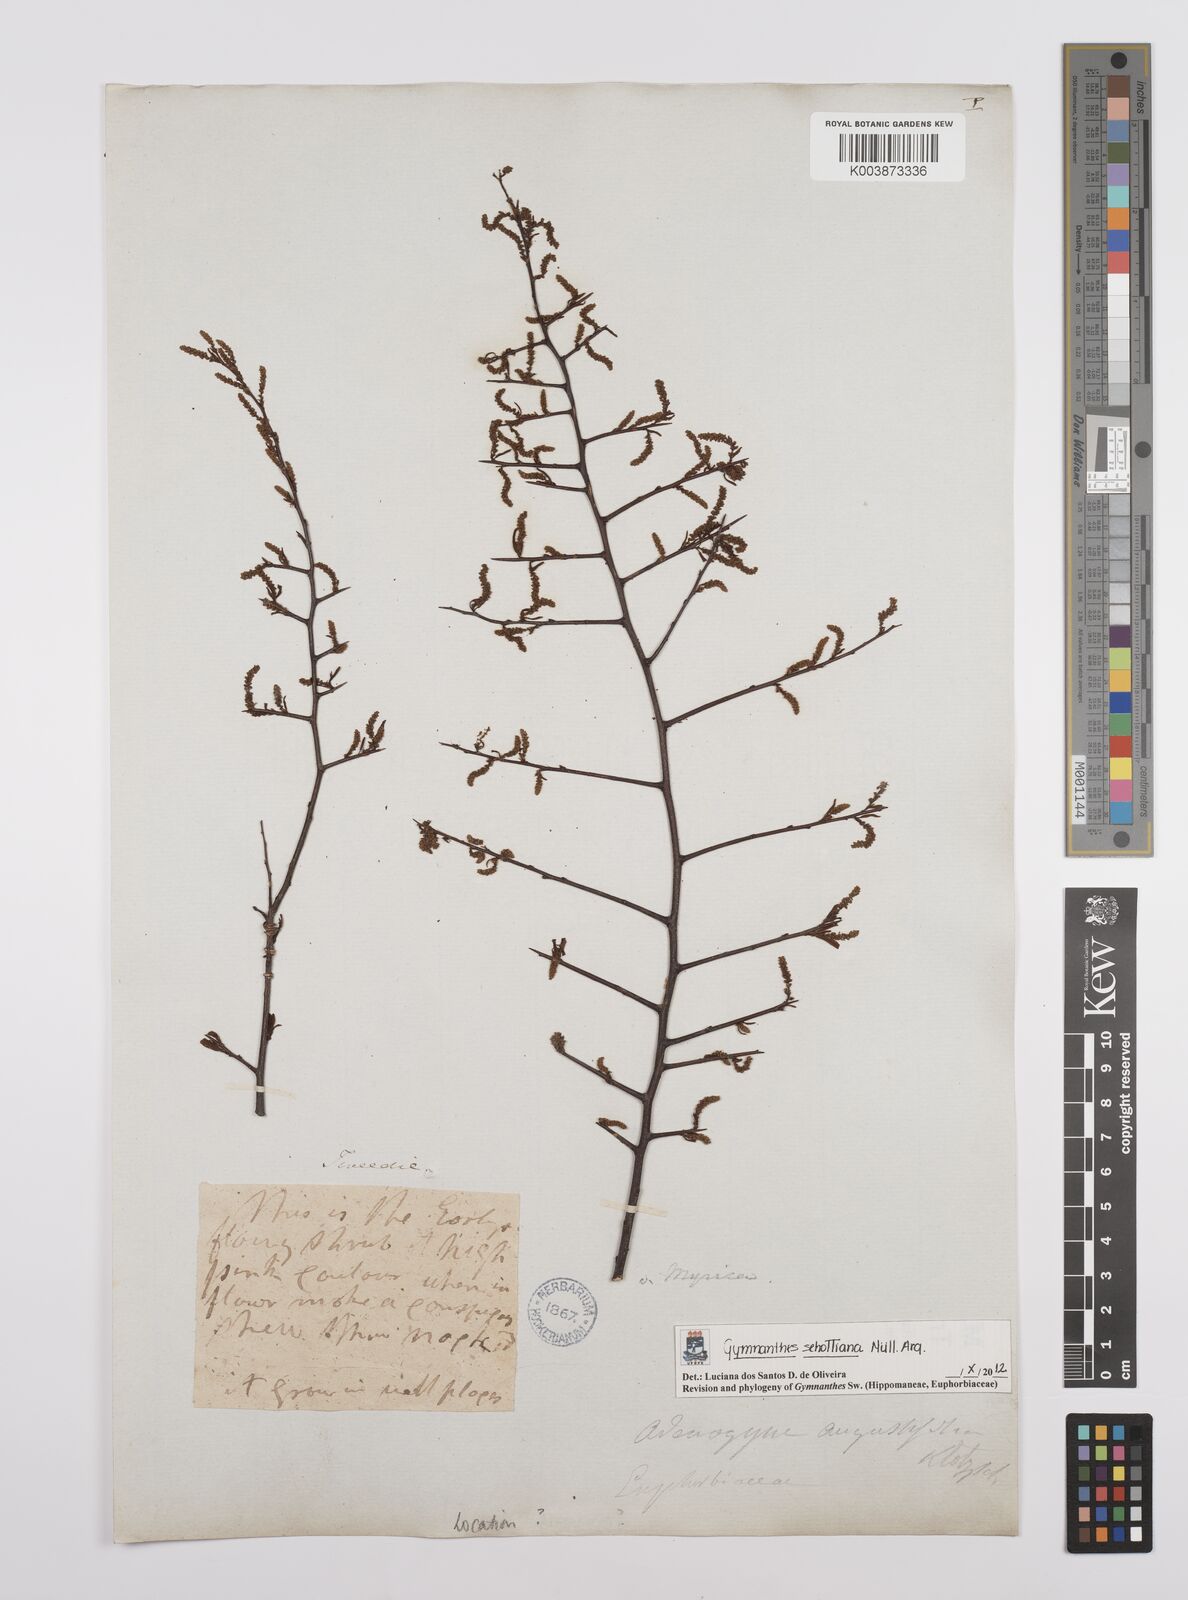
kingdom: Plantae
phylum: Tracheophyta
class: Magnoliopsida
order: Malpighiales
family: Euphorbiaceae
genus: Sebastiania
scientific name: Sebastiania schottiana
